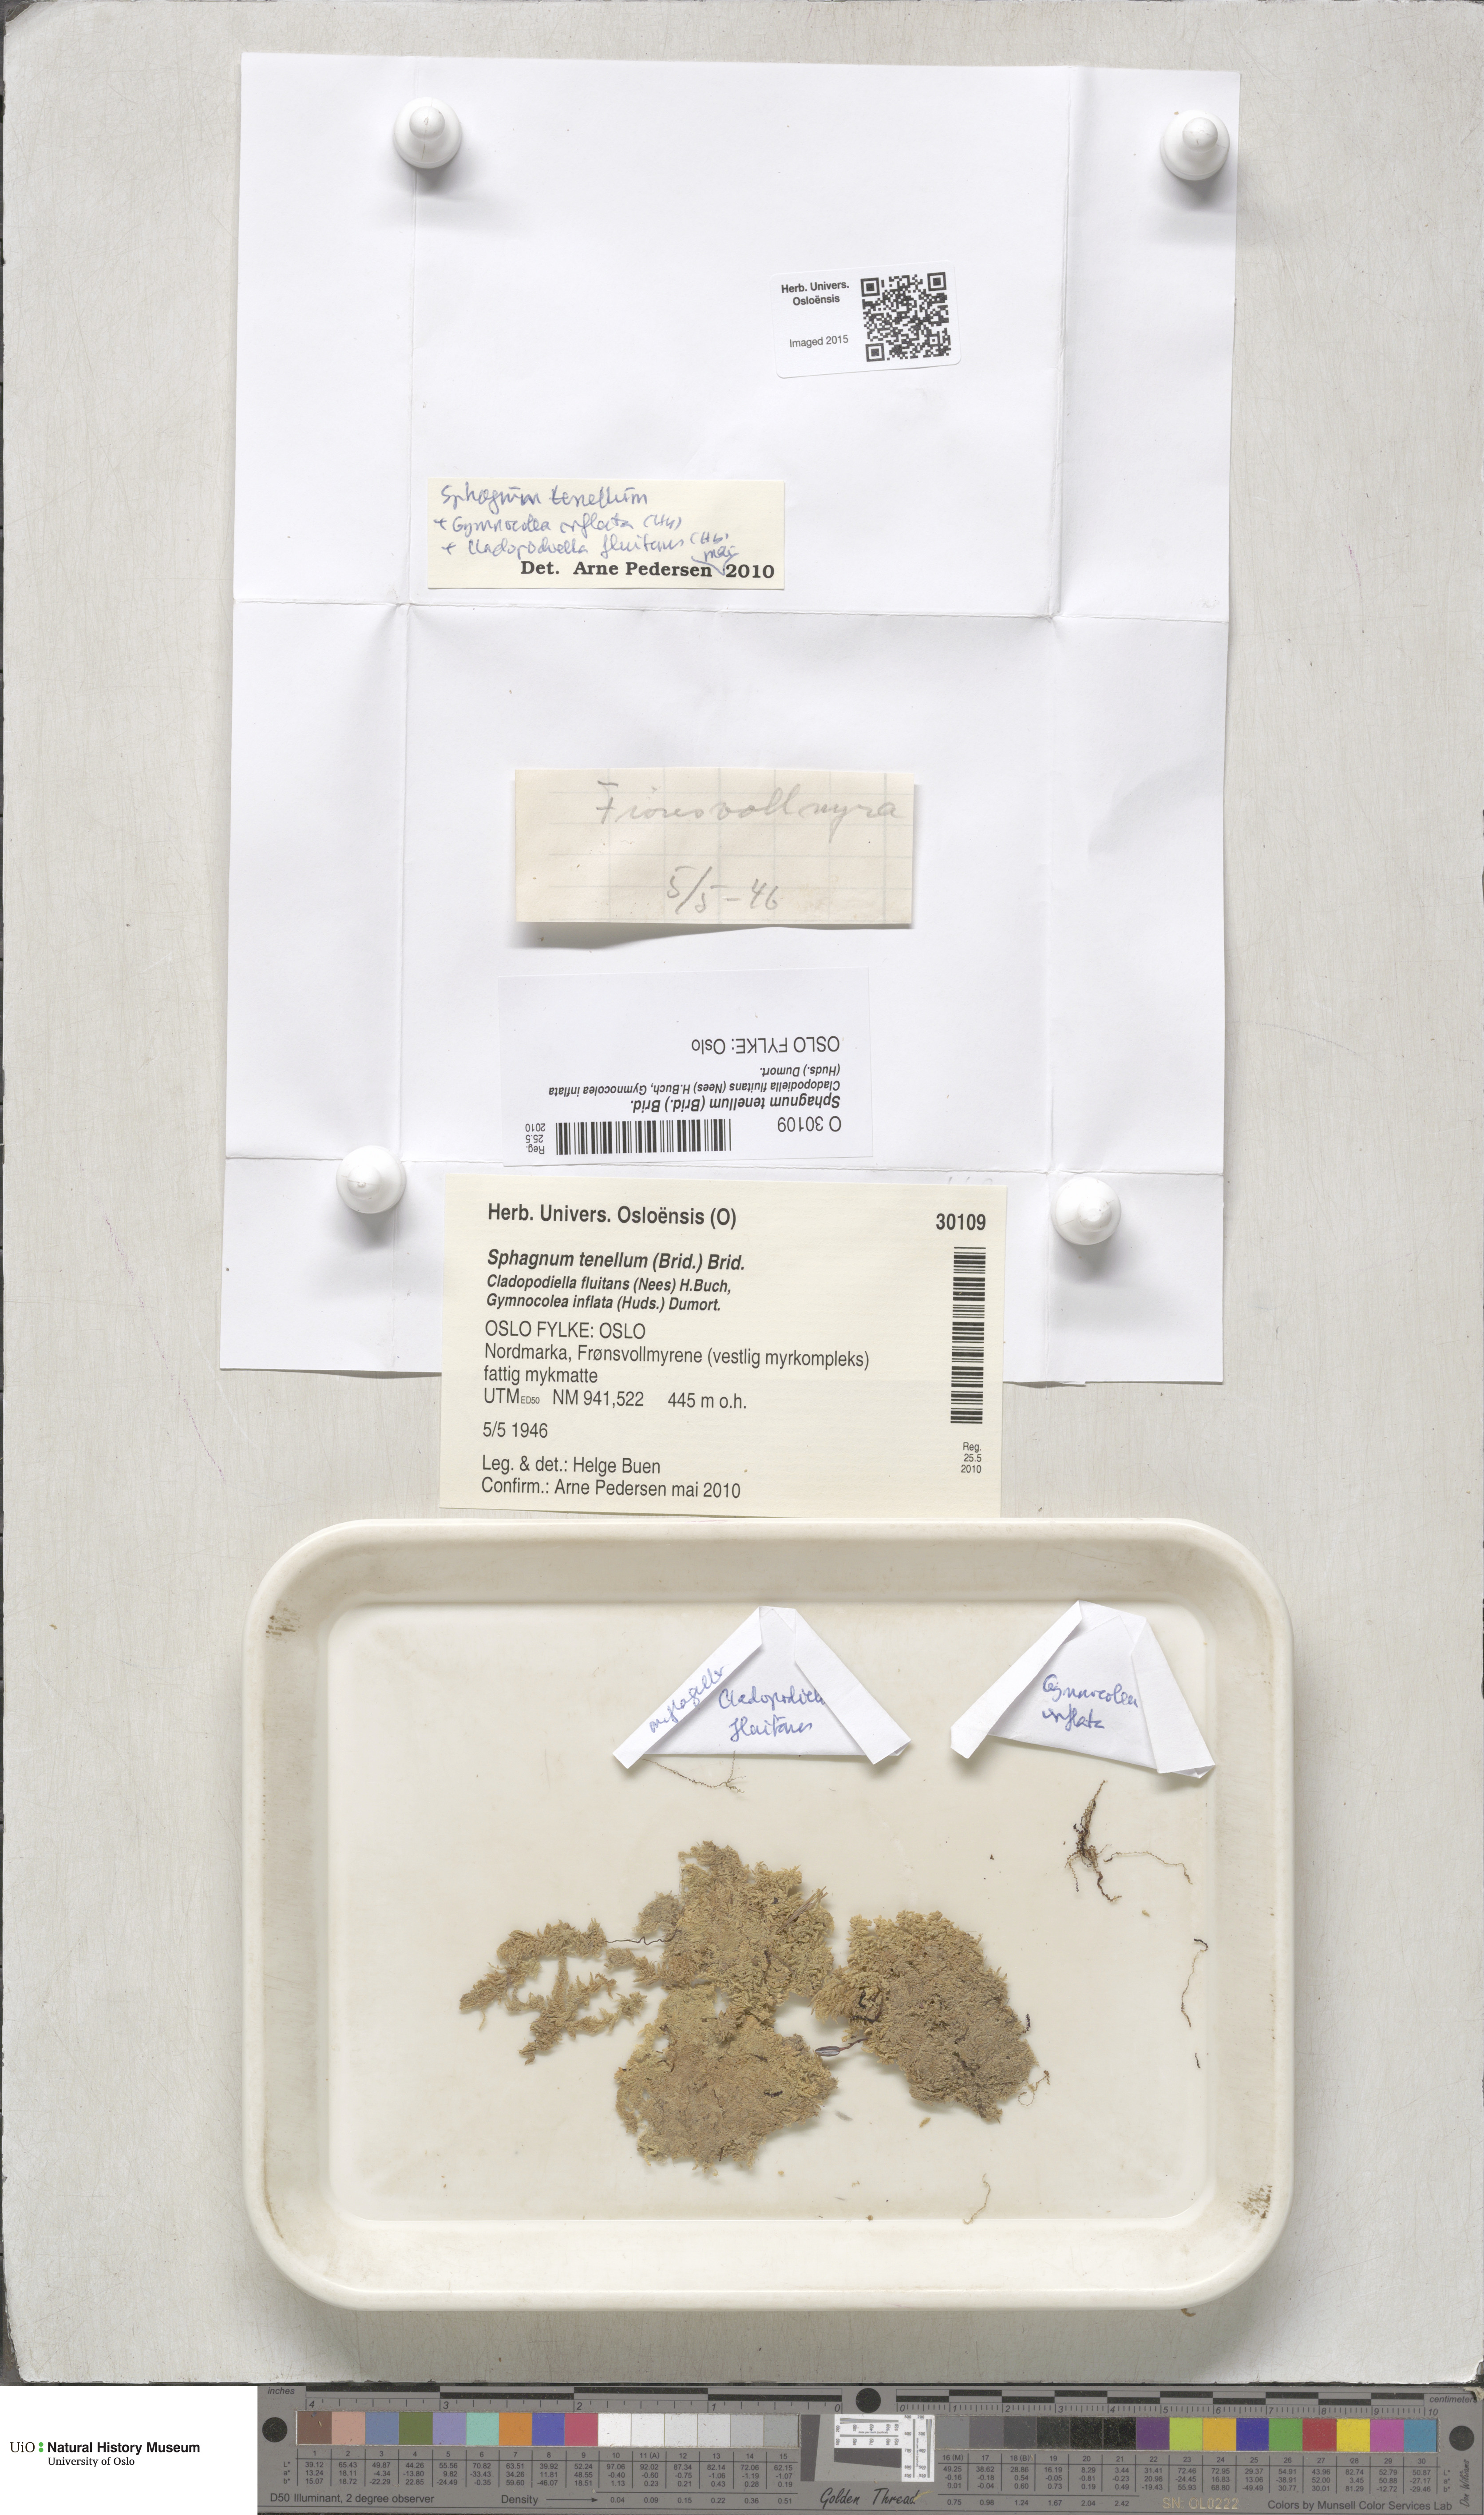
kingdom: Plantae
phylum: Bryophyta
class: Sphagnopsida
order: Sphagnales
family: Sphagnaceae
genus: Sphagnum
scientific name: Sphagnum tenellum
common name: Soft bog-moss
